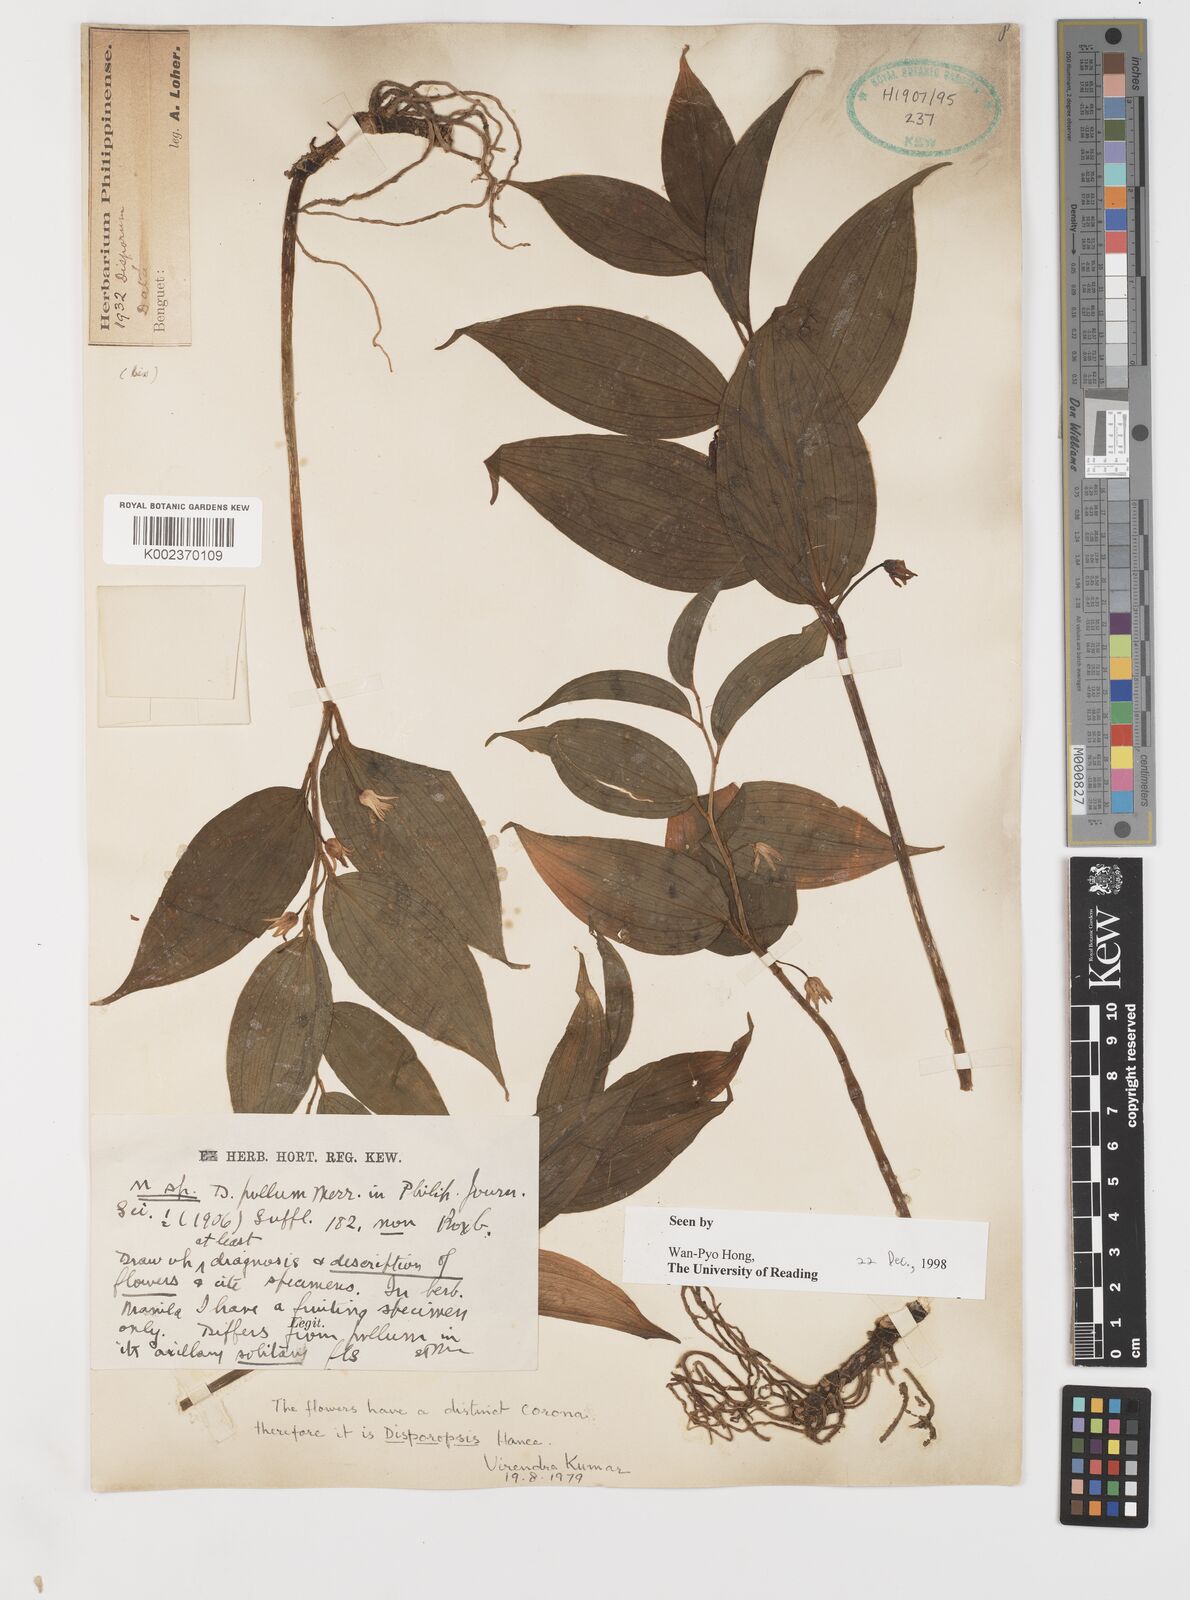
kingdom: Plantae
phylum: Tracheophyta
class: Liliopsida
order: Asparagales
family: Asparagaceae
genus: Disporopsis
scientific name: Disporopsis luzoniensis
